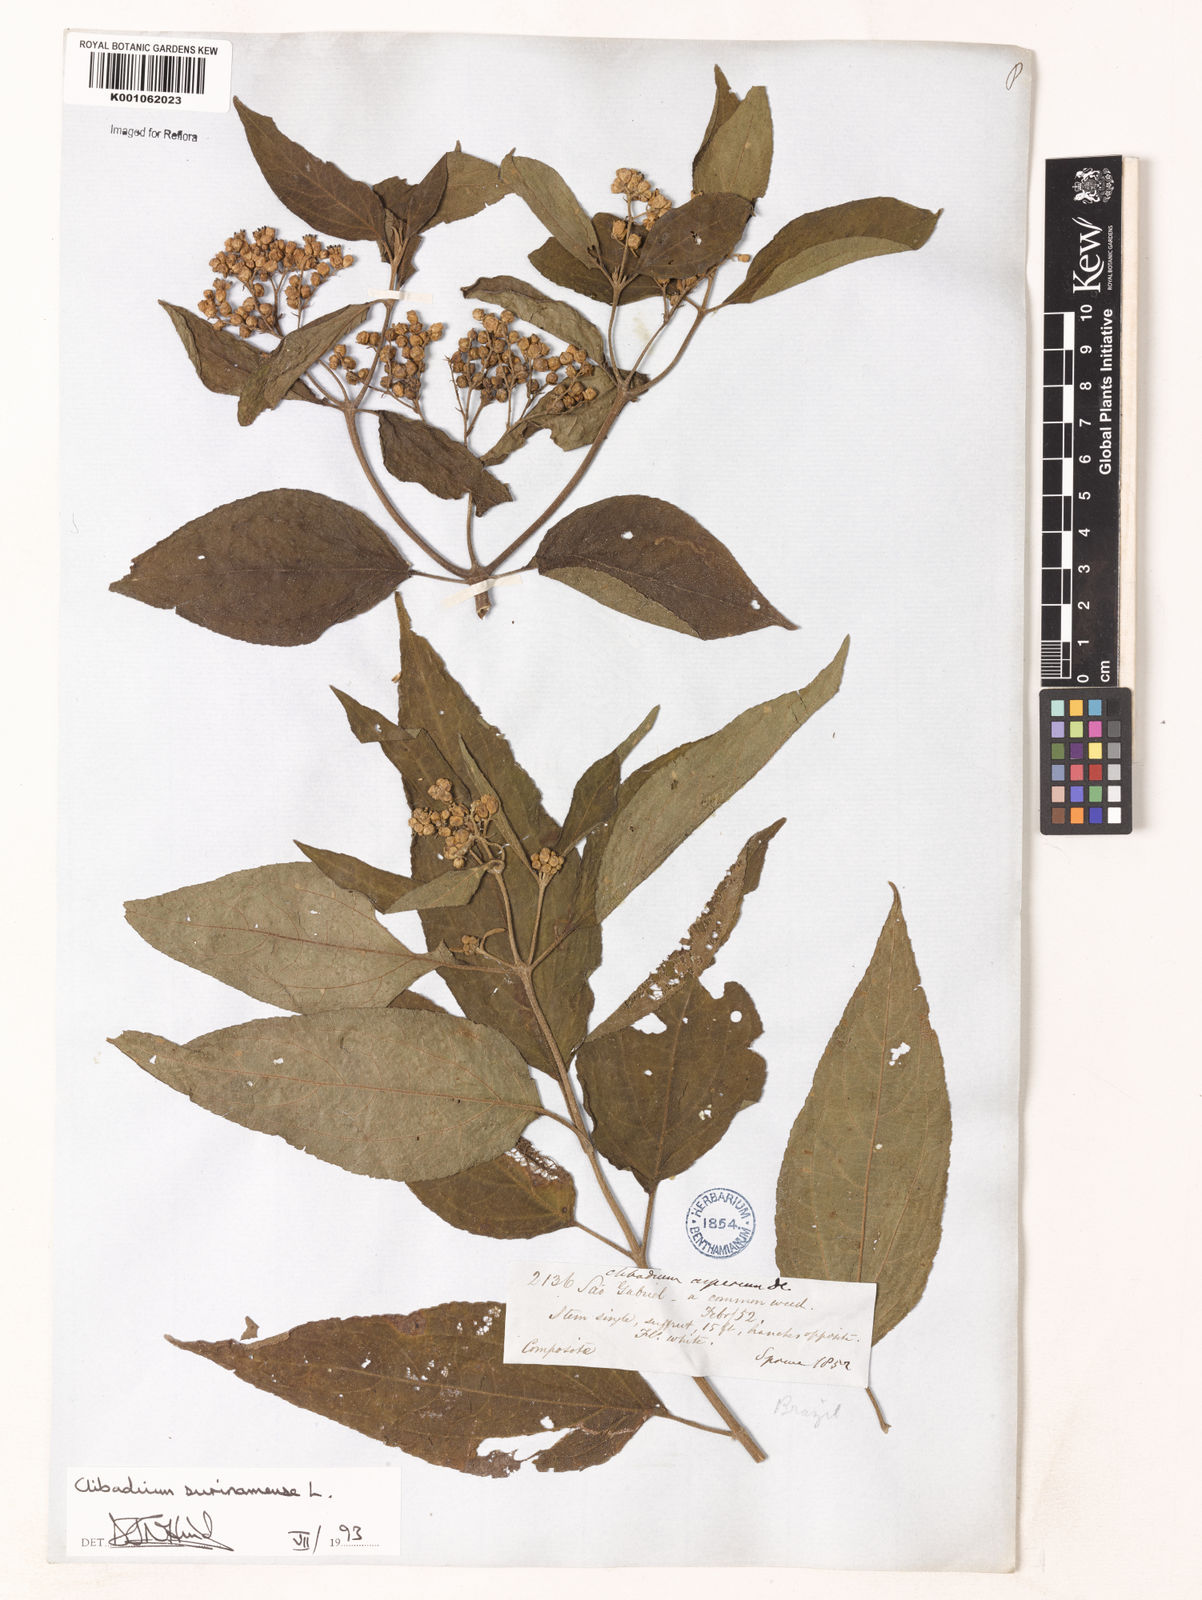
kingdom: Plantae
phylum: Tracheophyta
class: Magnoliopsida
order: Asterales
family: Asteraceae
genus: Clibadium
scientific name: Clibadium surinamense
